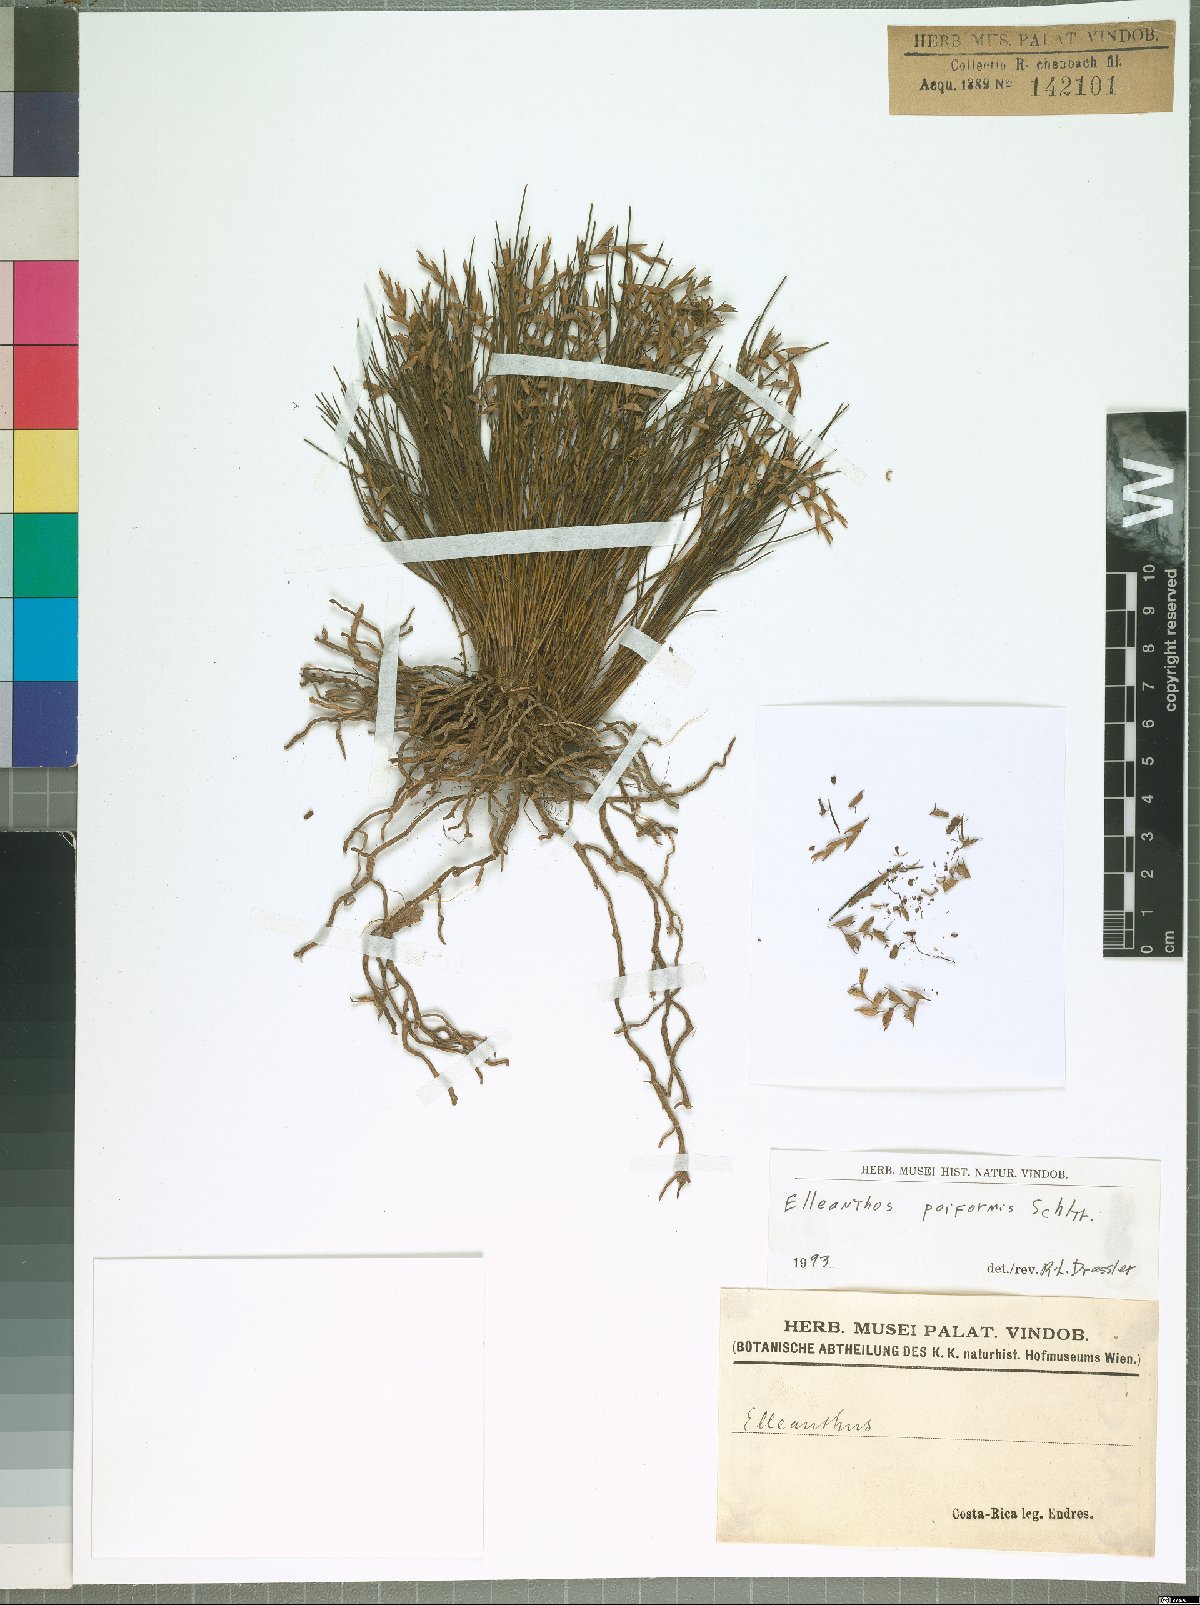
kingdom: Plantae
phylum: Tracheophyta
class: Liliopsida
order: Asparagales
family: Orchidaceae
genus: Elleanthus
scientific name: Elleanthus poiformis
